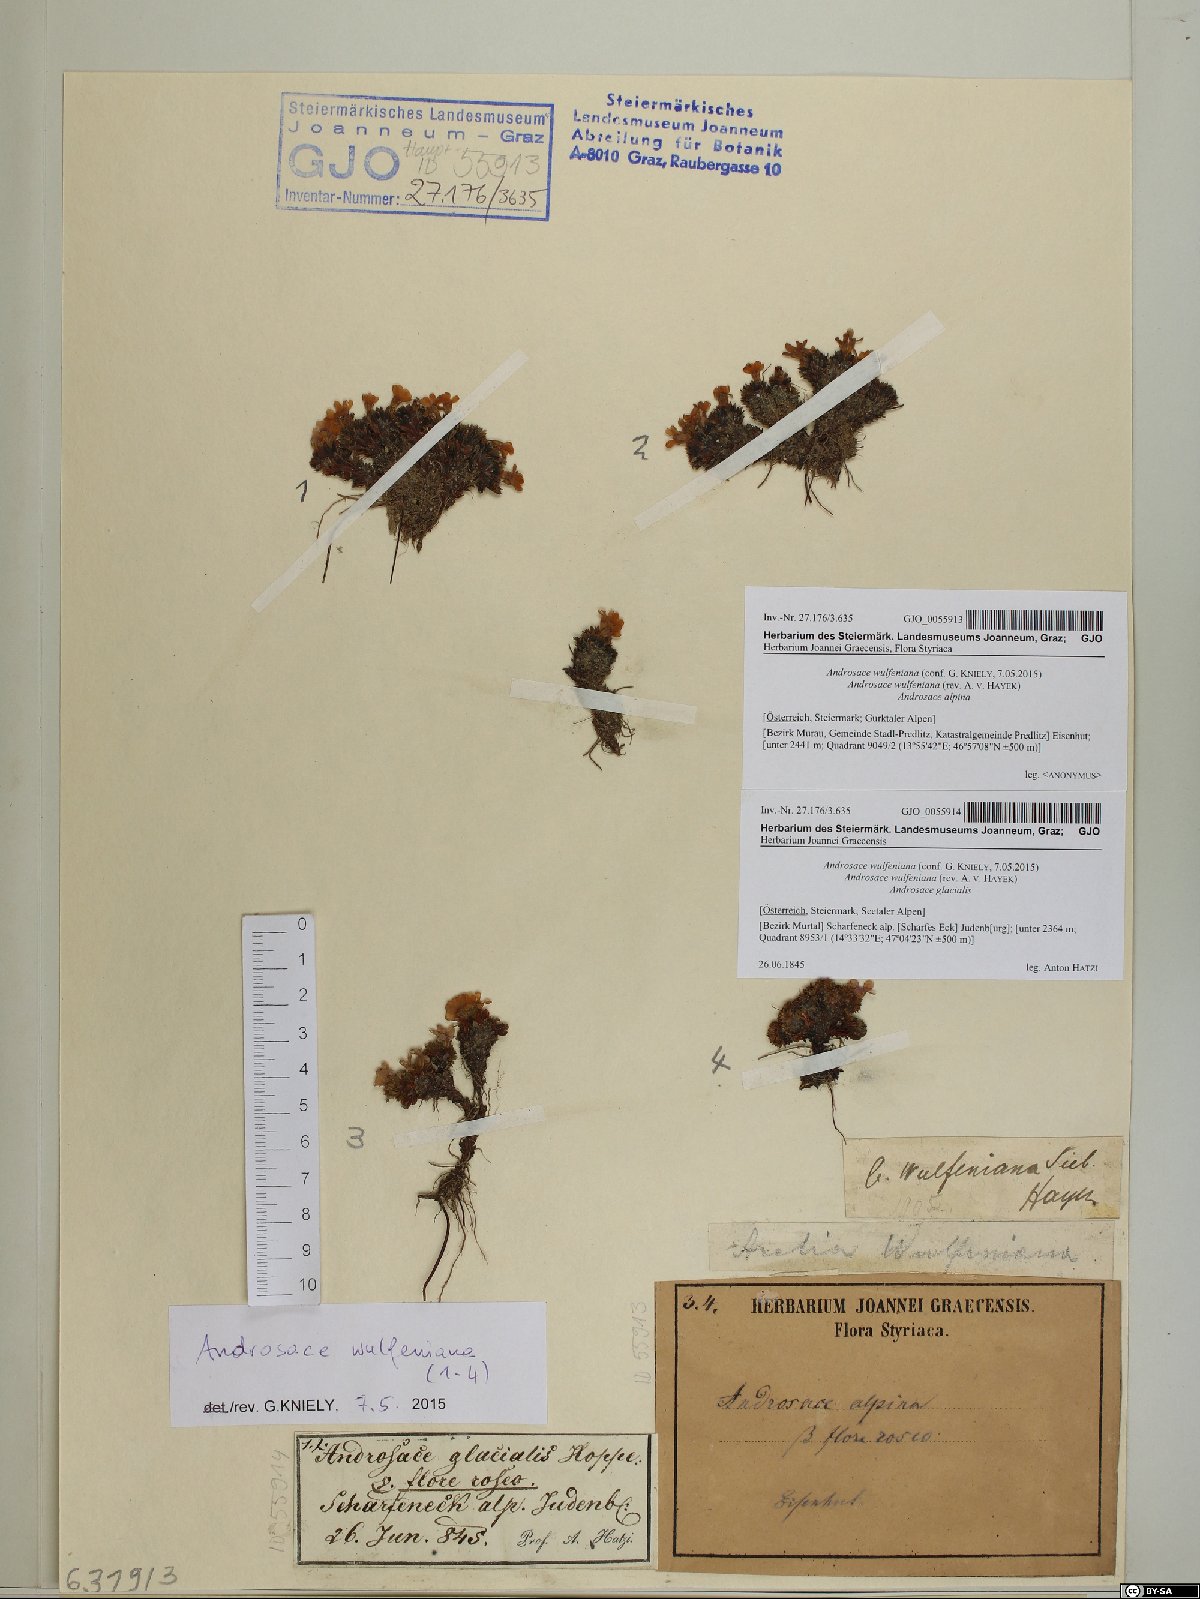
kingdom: Plantae
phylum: Tracheophyta
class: Magnoliopsida
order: Ericales
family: Primulaceae
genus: Androsace
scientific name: Androsace wulfeniana
